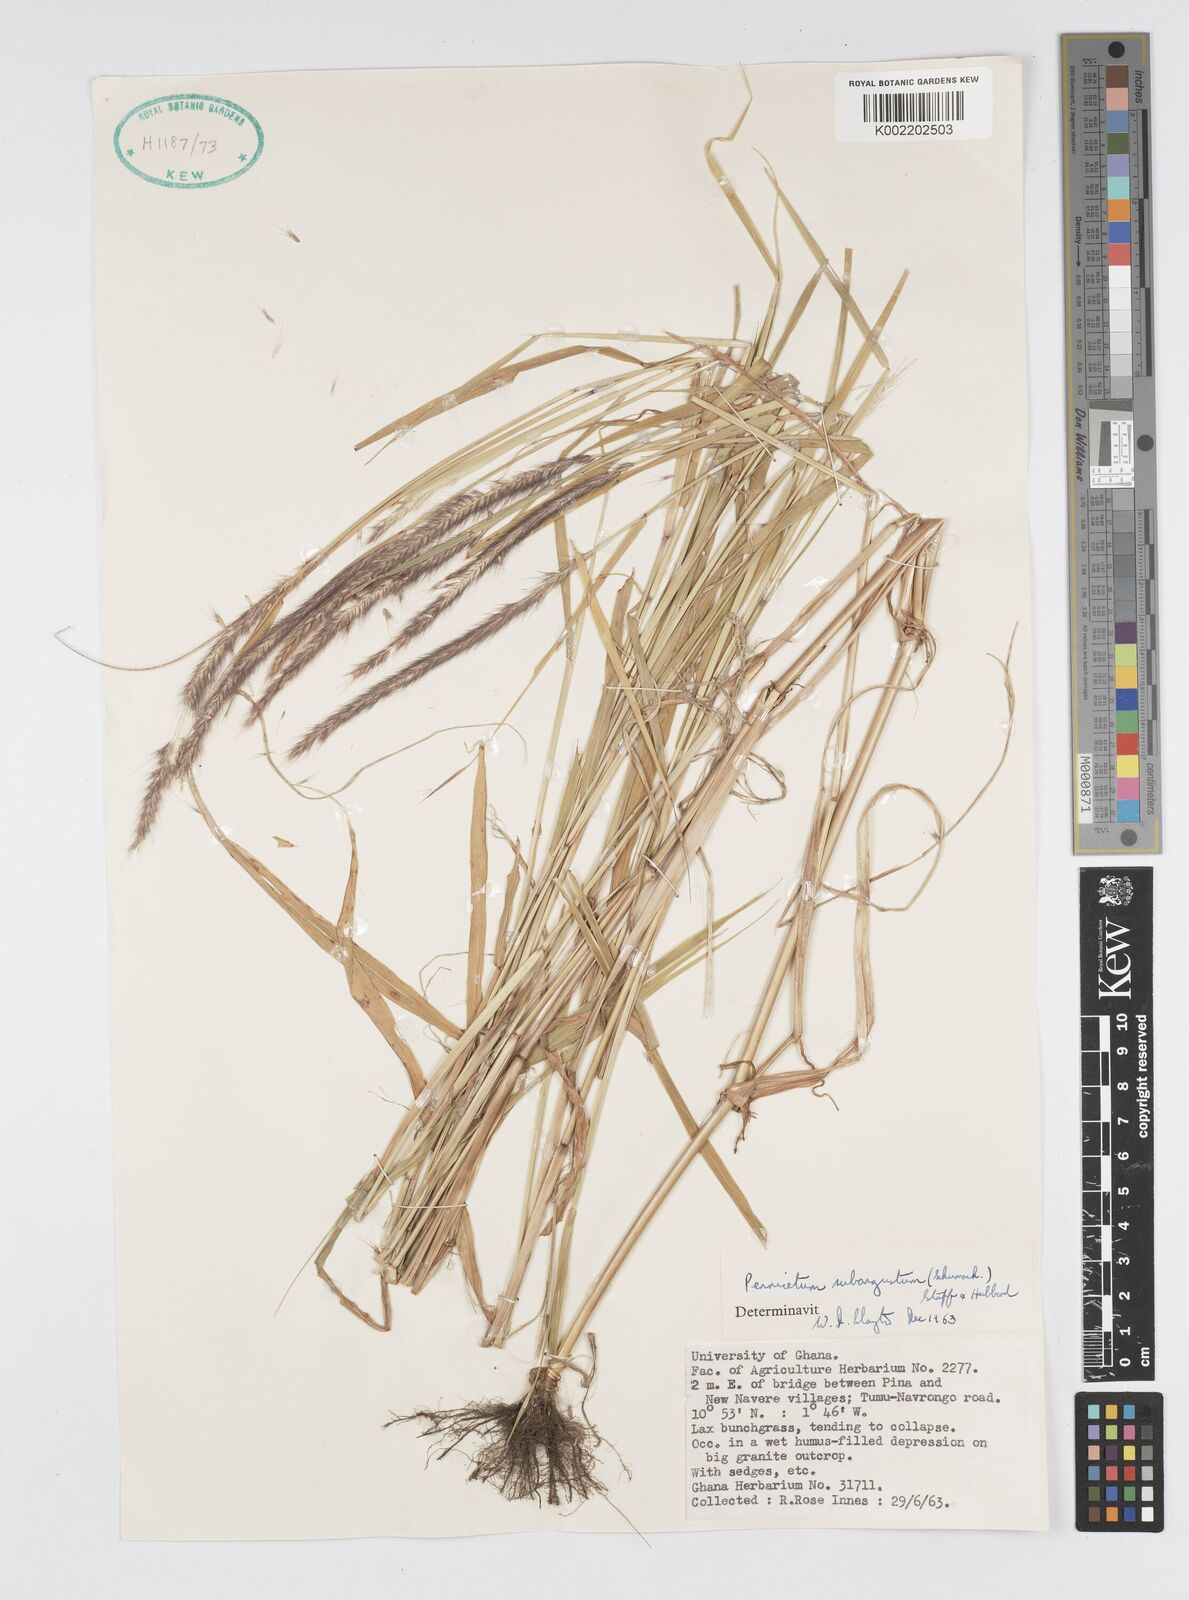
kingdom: Plantae
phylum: Tracheophyta
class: Liliopsida
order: Poales
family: Poaceae
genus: Setaria
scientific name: Setaria parviflora
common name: Knotroot bristle-grass
